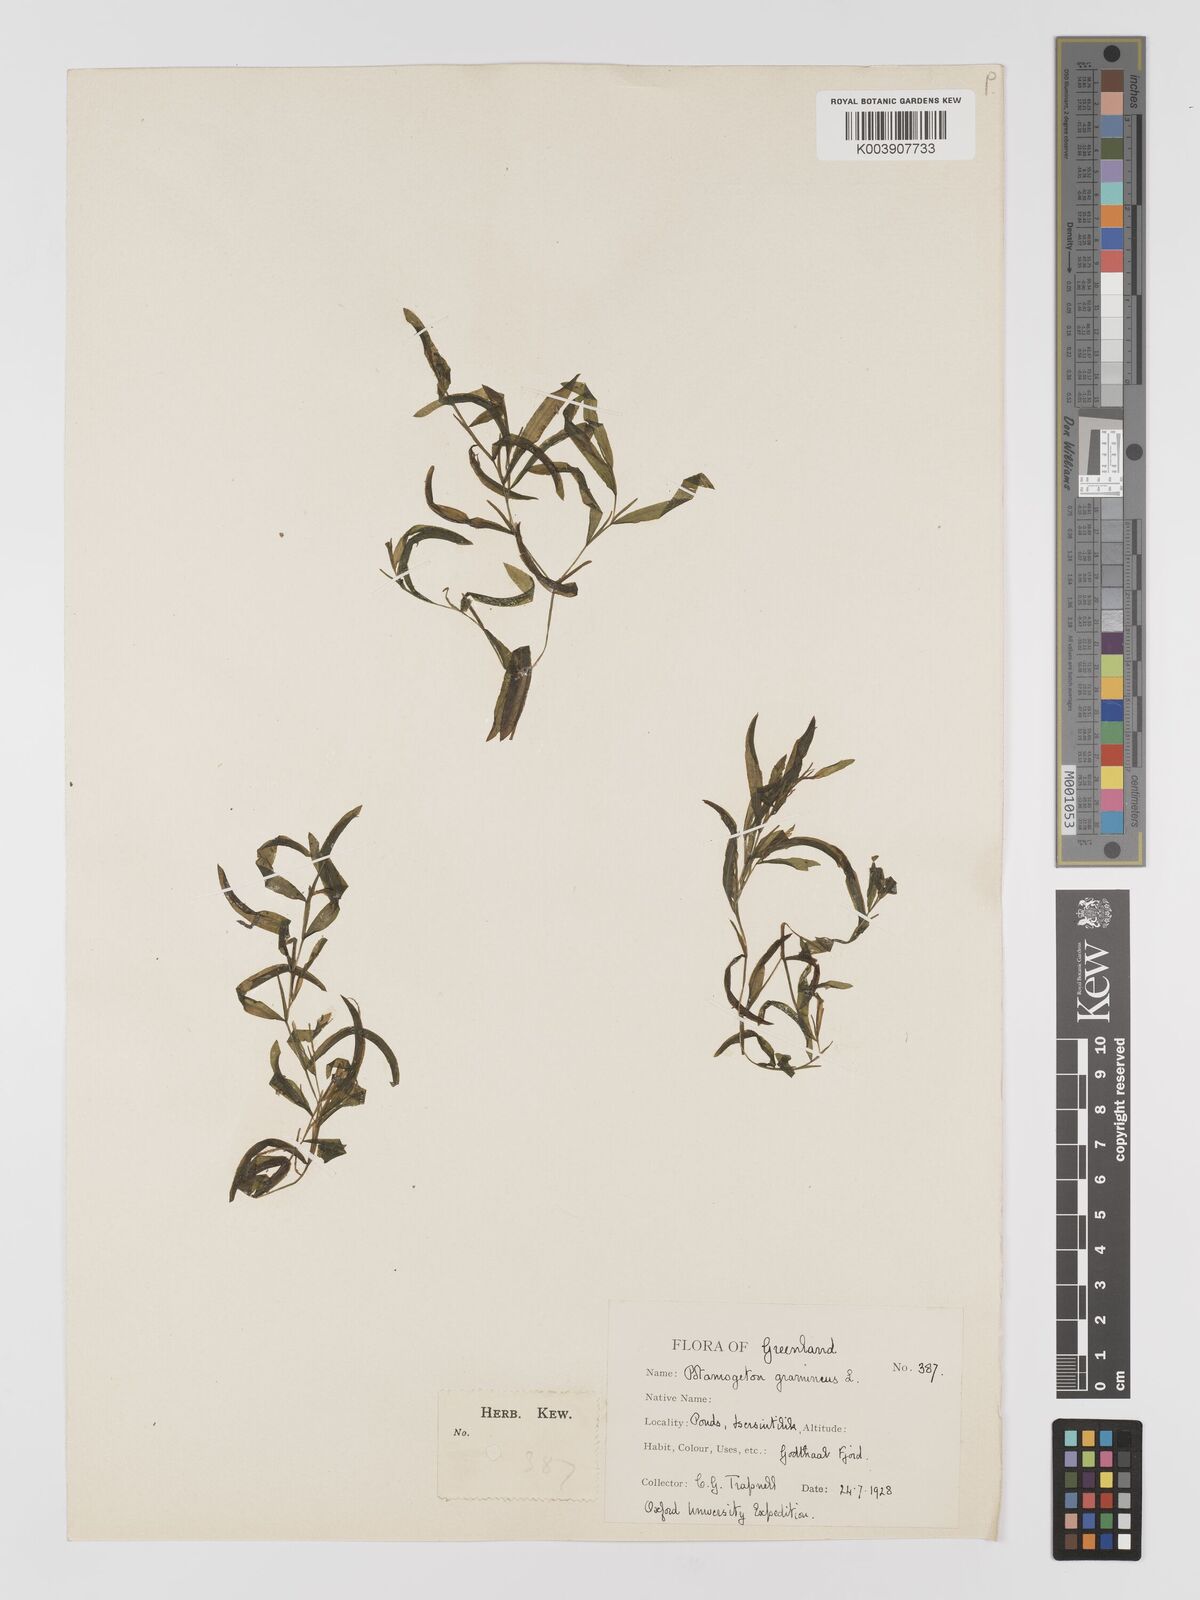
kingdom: Plantae
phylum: Tracheophyta
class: Liliopsida
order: Alismatales
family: Potamogetonaceae
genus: Potamogeton
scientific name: Potamogeton gramineus
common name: Various-leaved pondweed
